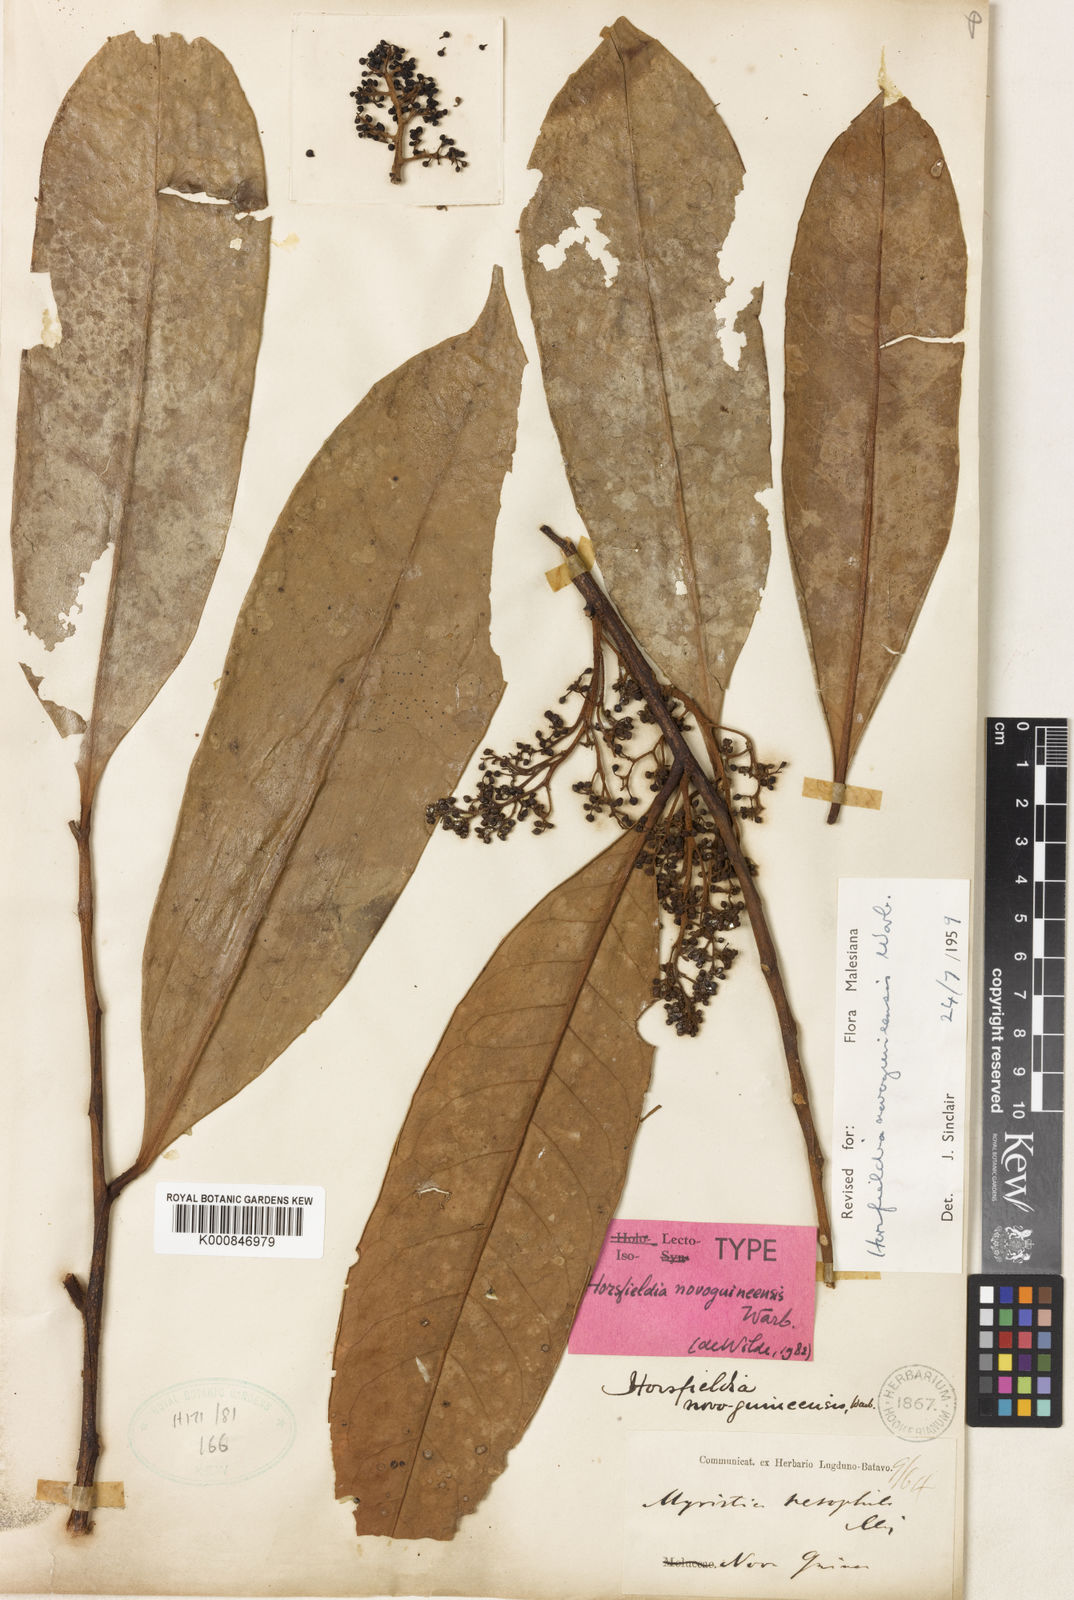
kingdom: Plantae
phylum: Tracheophyta
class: Magnoliopsida
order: Magnoliales
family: Myristicaceae
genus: Horsfieldia
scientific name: Horsfieldia laevigata
